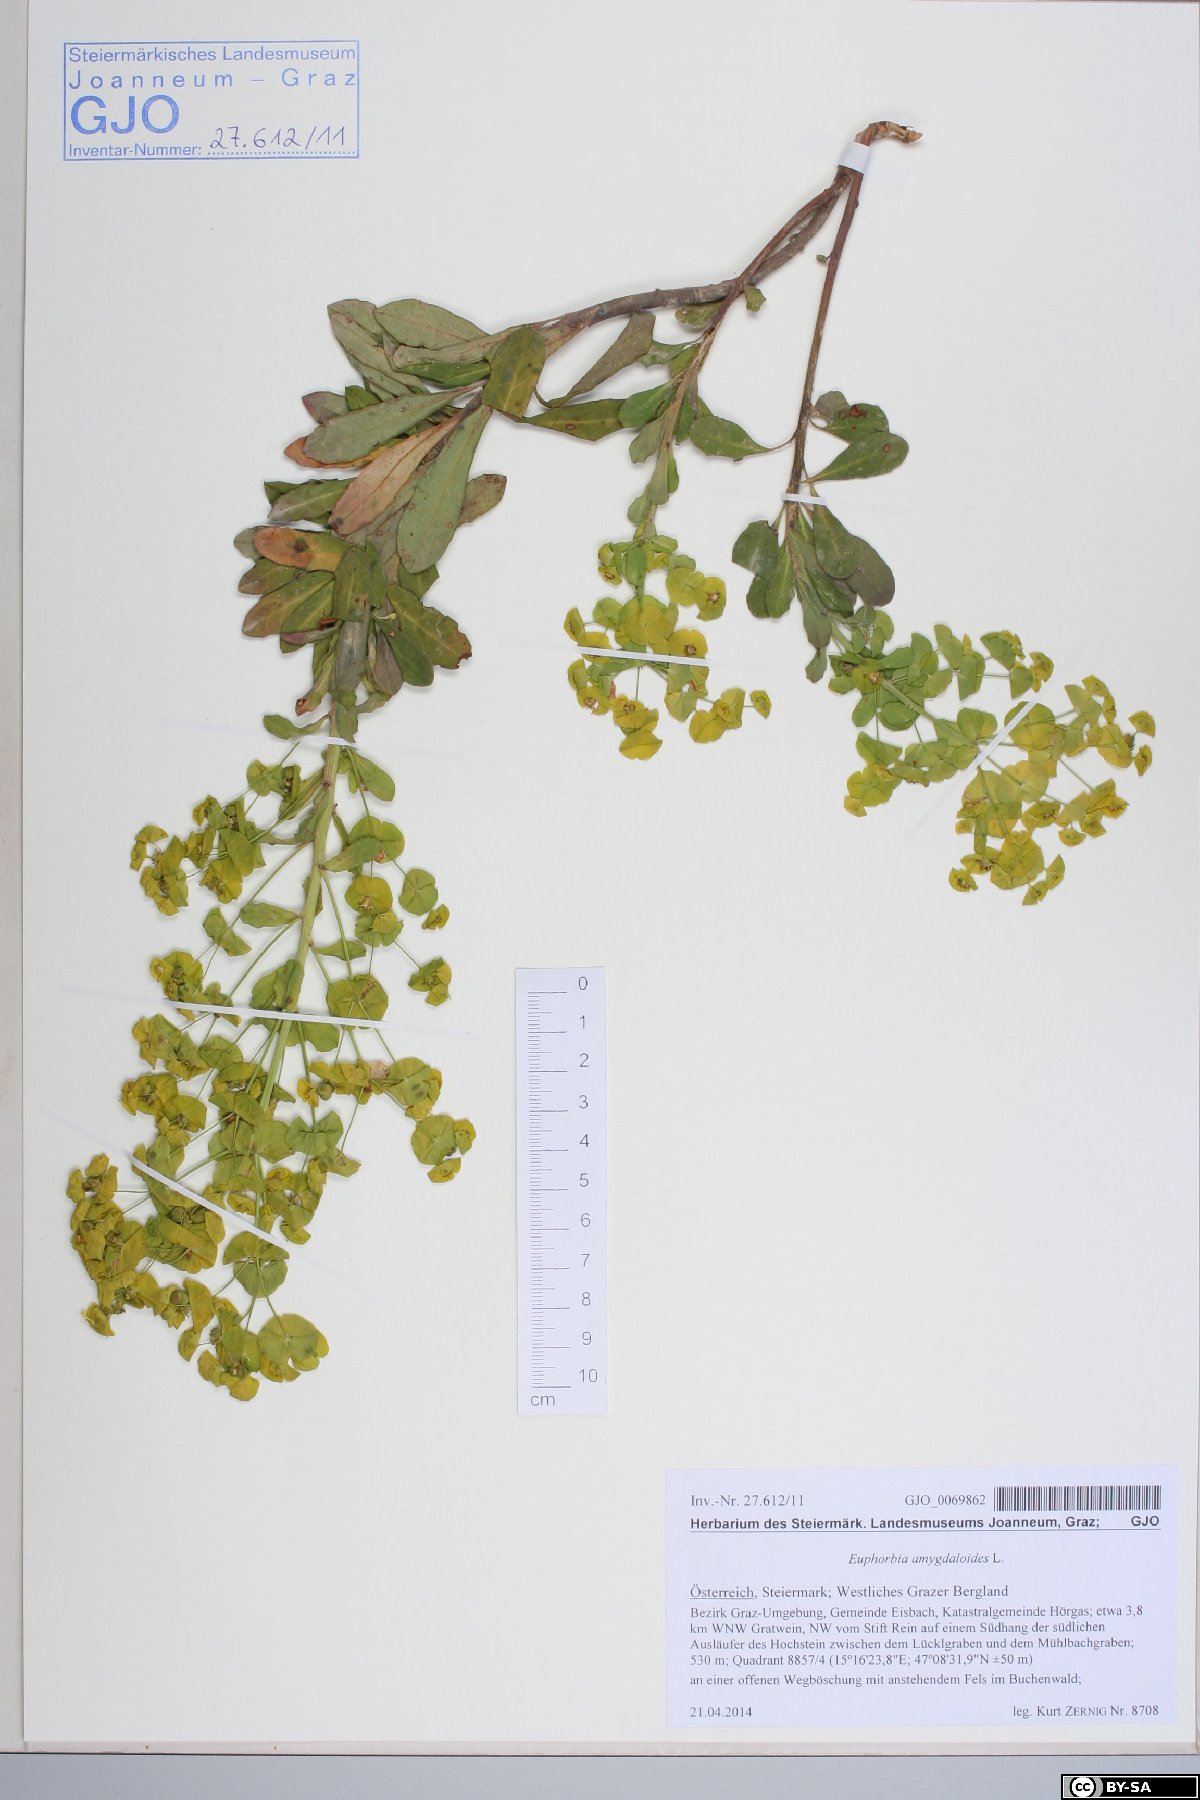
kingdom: Plantae
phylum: Tracheophyta
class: Magnoliopsida
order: Malpighiales
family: Euphorbiaceae
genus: Euphorbia
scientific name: Euphorbia amygdaloides
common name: Wood spurge
